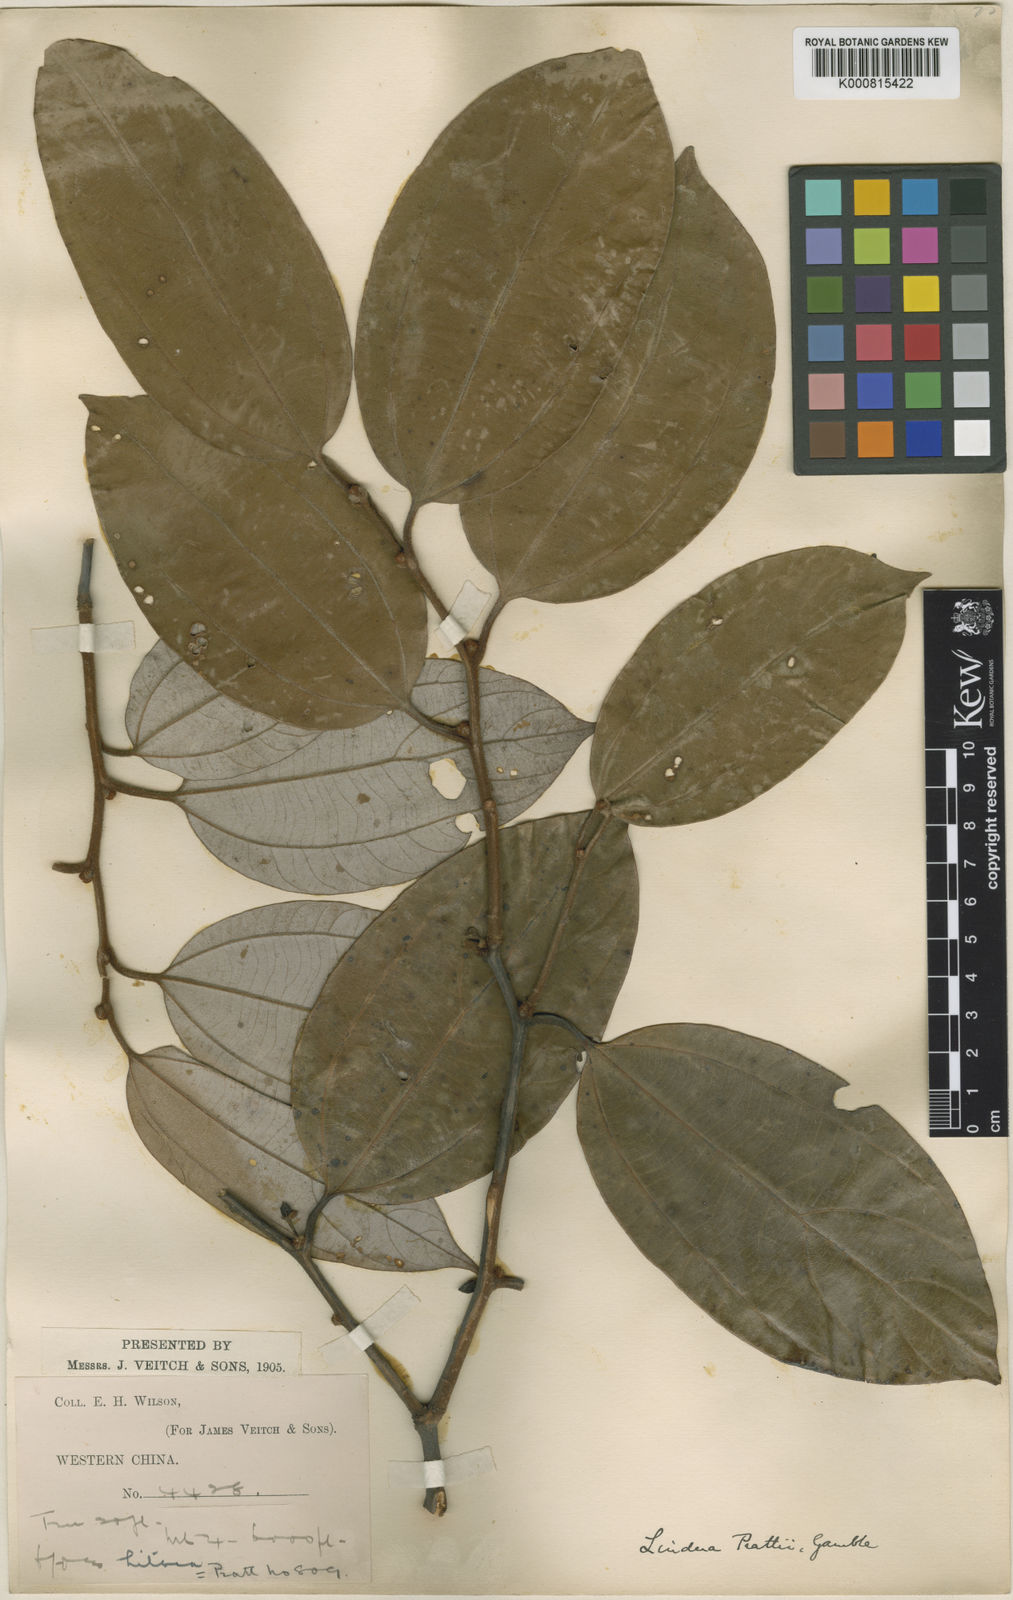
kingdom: Plantae
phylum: Tracheophyta
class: Magnoliopsida
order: Laurales
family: Lauraceae
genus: Lindera
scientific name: Lindera prattii
